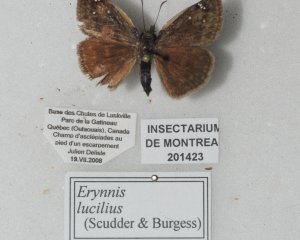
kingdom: Animalia
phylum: Arthropoda
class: Insecta
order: Lepidoptera
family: Hesperiidae
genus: Gesta
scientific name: Gesta
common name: Columbine Duskywing
